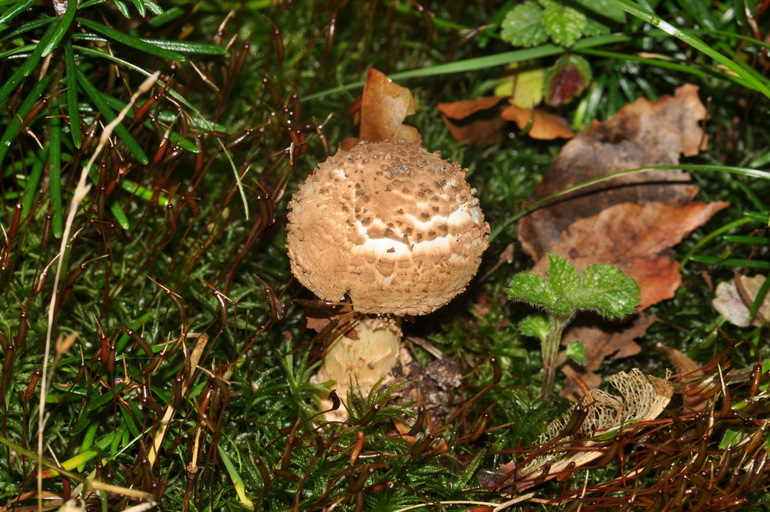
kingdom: Fungi
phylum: Basidiomycota
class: Agaricomycetes
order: Agaricales
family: Agaricaceae
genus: Echinoderma
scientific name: Echinoderma asperum
